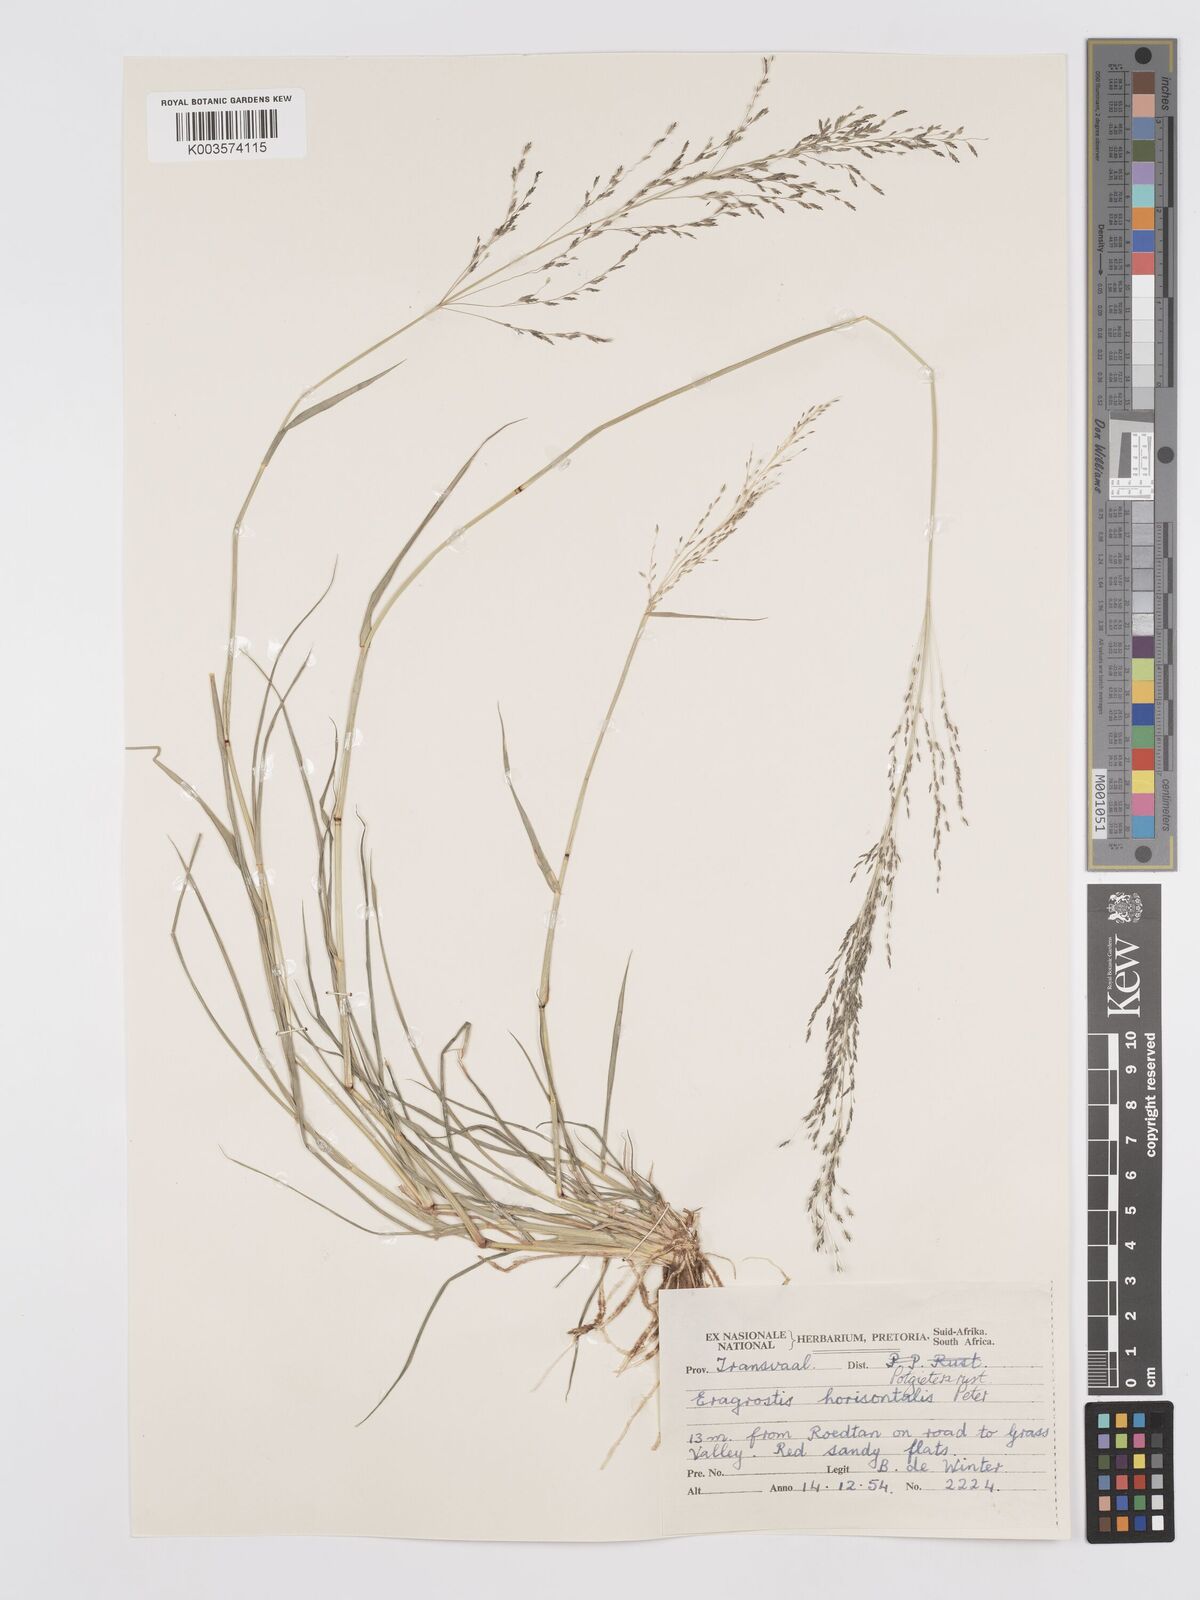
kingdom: Plantae
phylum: Tracheophyta
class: Liliopsida
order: Poales
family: Poaceae
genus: Eragrostis
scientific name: Eragrostis cylindriflora
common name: Cylinderflower lovegrass
